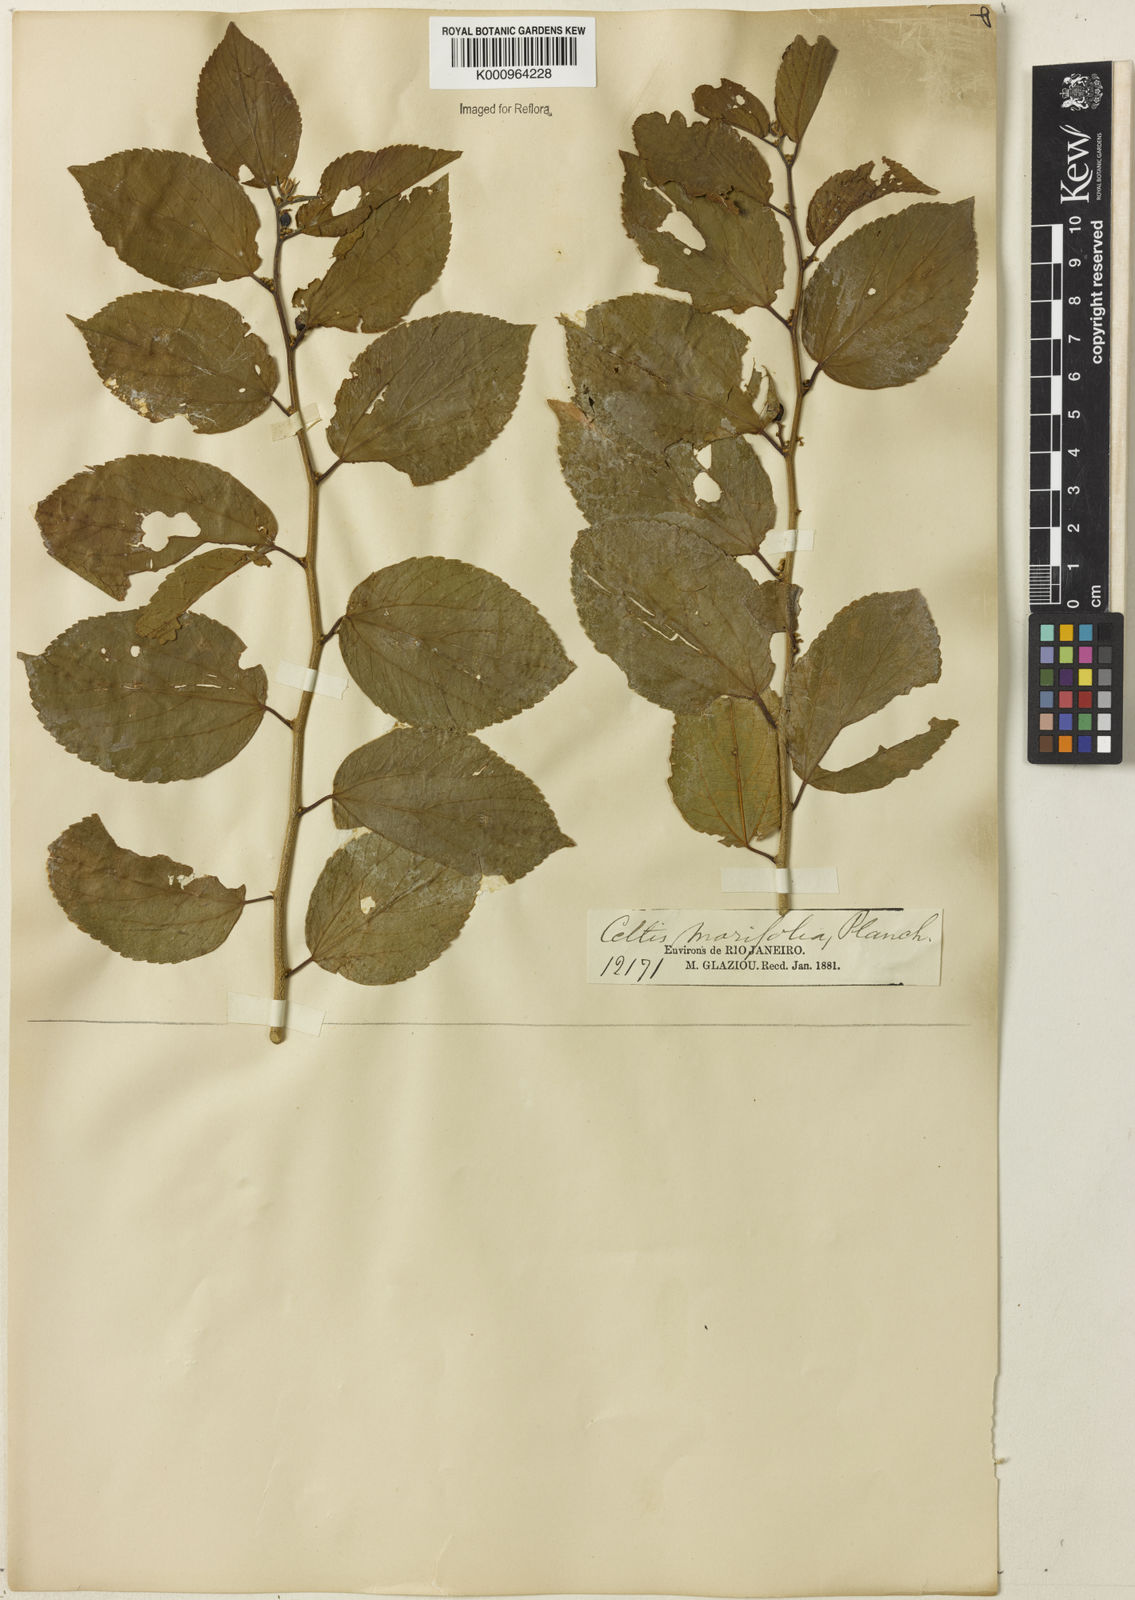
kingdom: Plantae
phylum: Tracheophyta
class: Magnoliopsida
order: Rosales
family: Cannabaceae
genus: Celtis
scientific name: Celtis iguanaea
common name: Iguana hackberry
